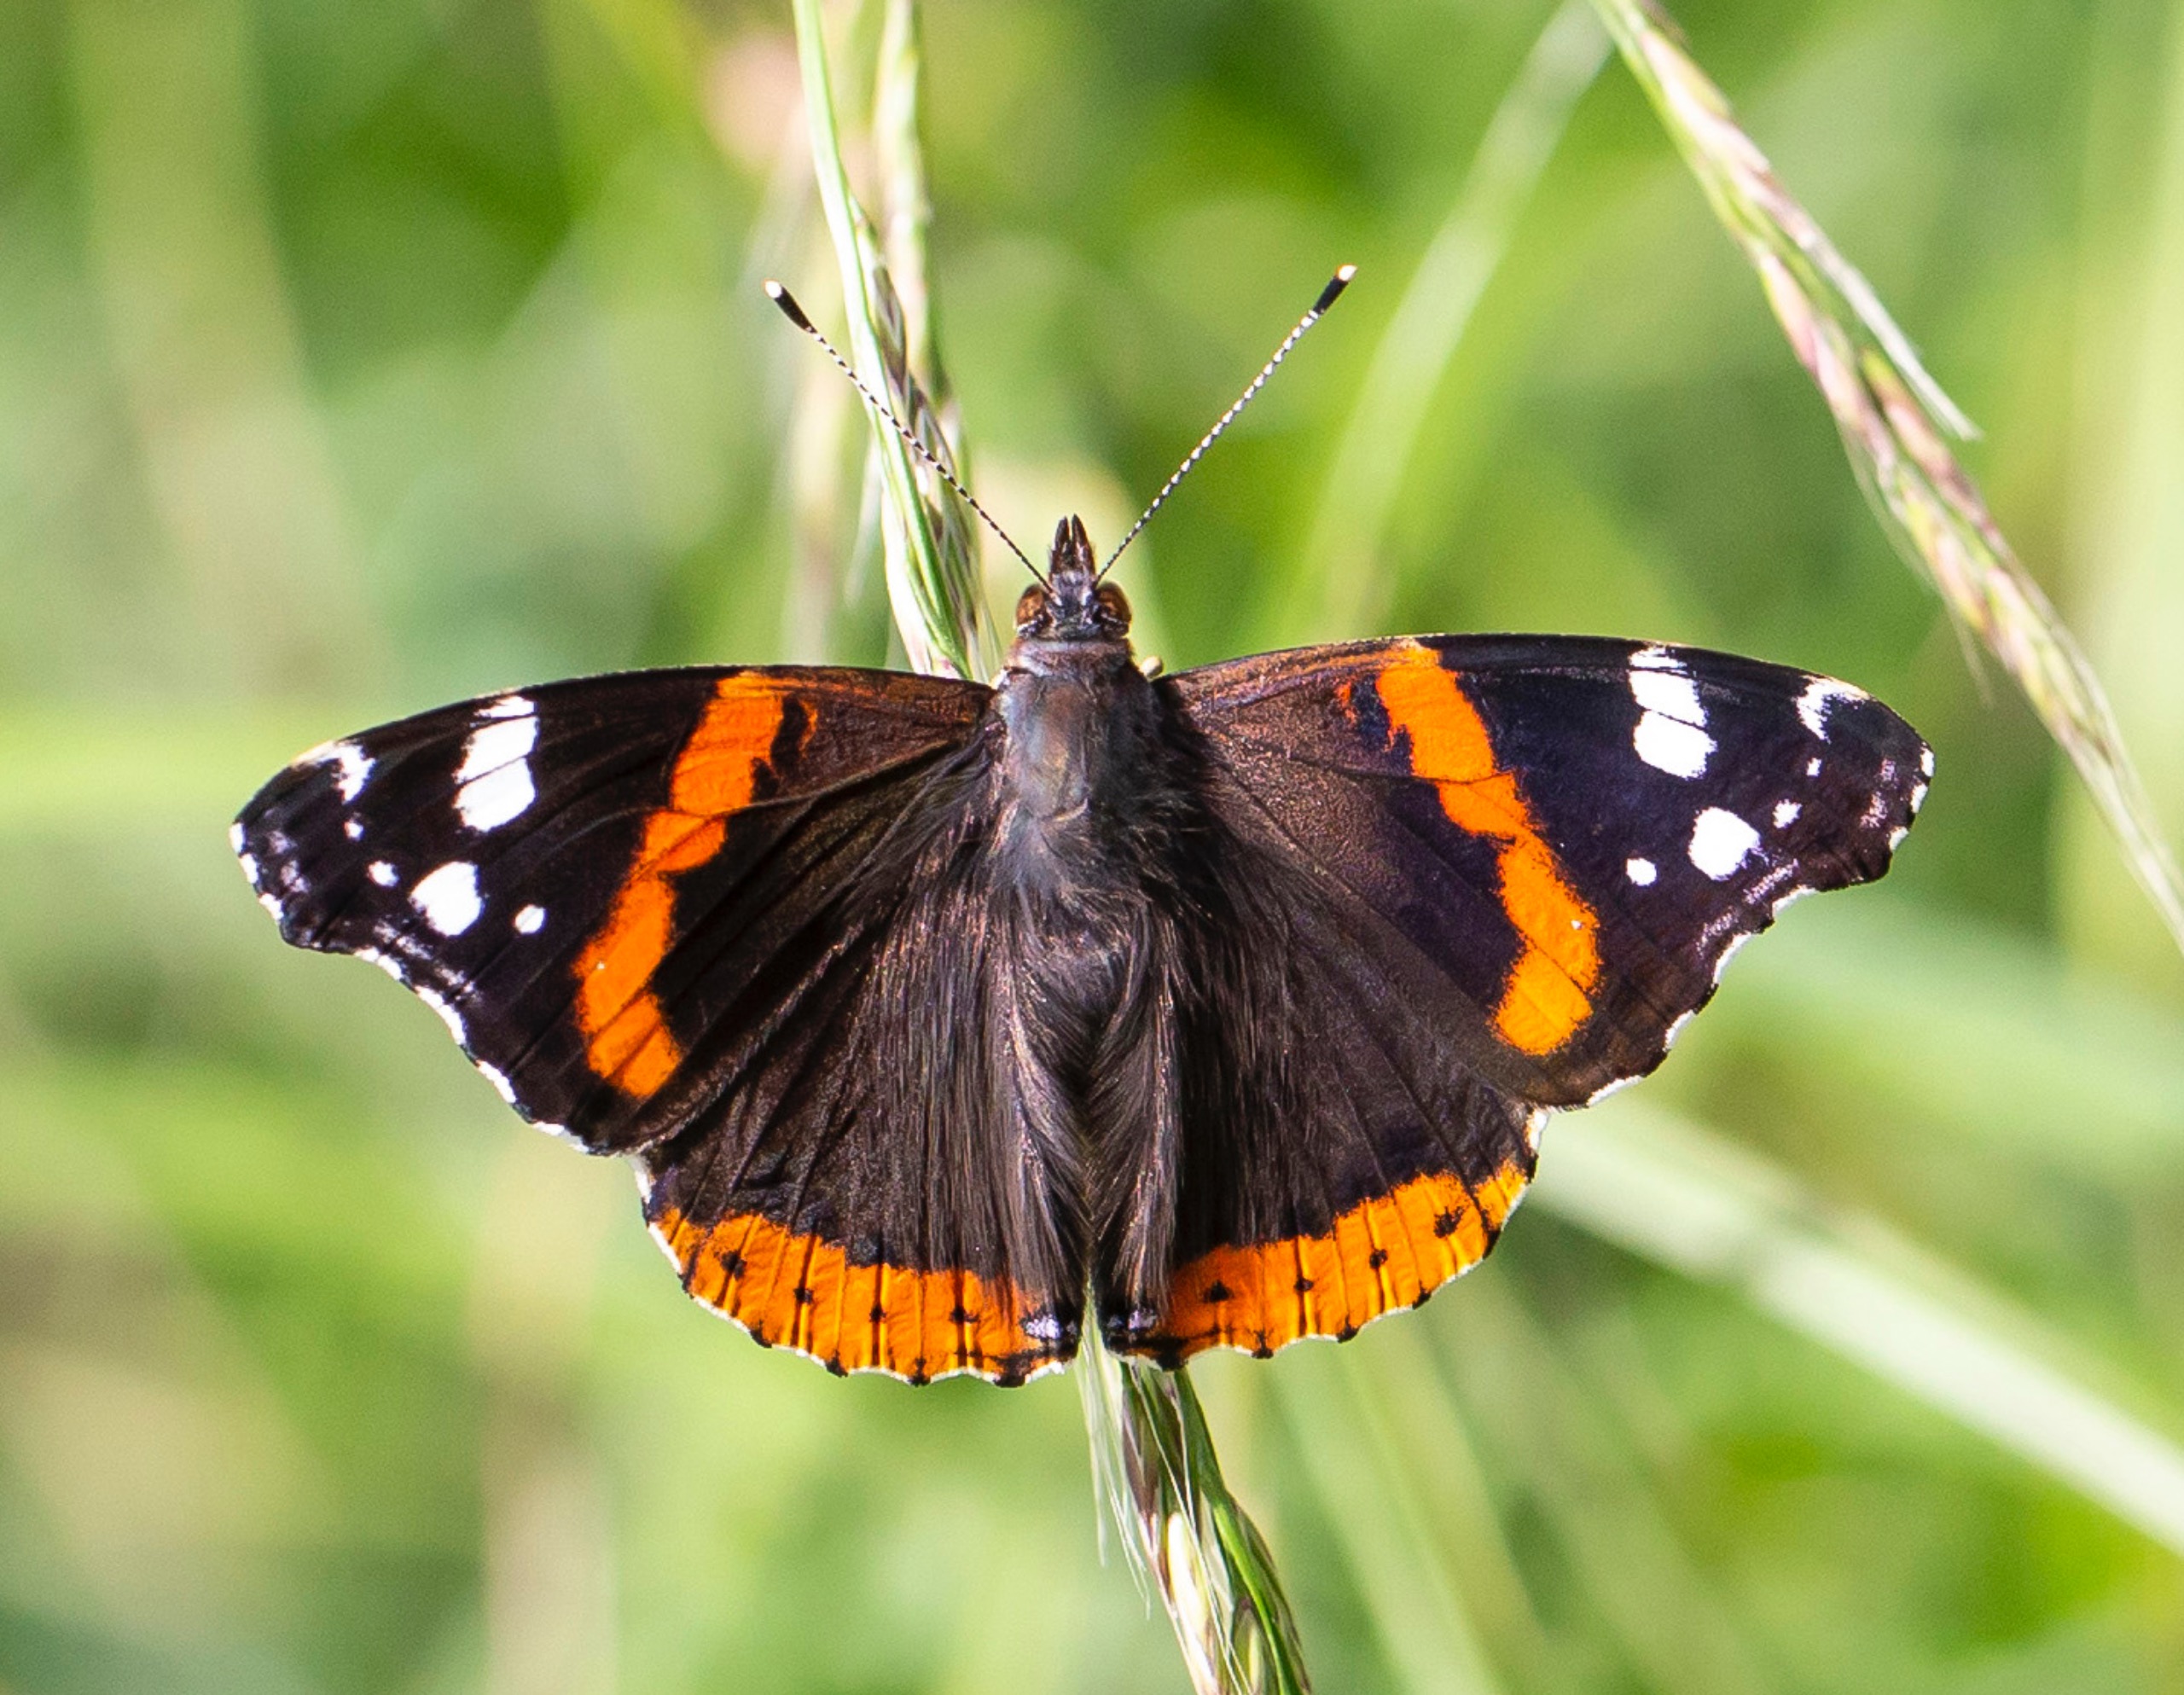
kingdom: Animalia
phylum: Arthropoda
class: Insecta
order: Lepidoptera
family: Nymphalidae
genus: Vanessa
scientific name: Vanessa atalanta
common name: Admiral
